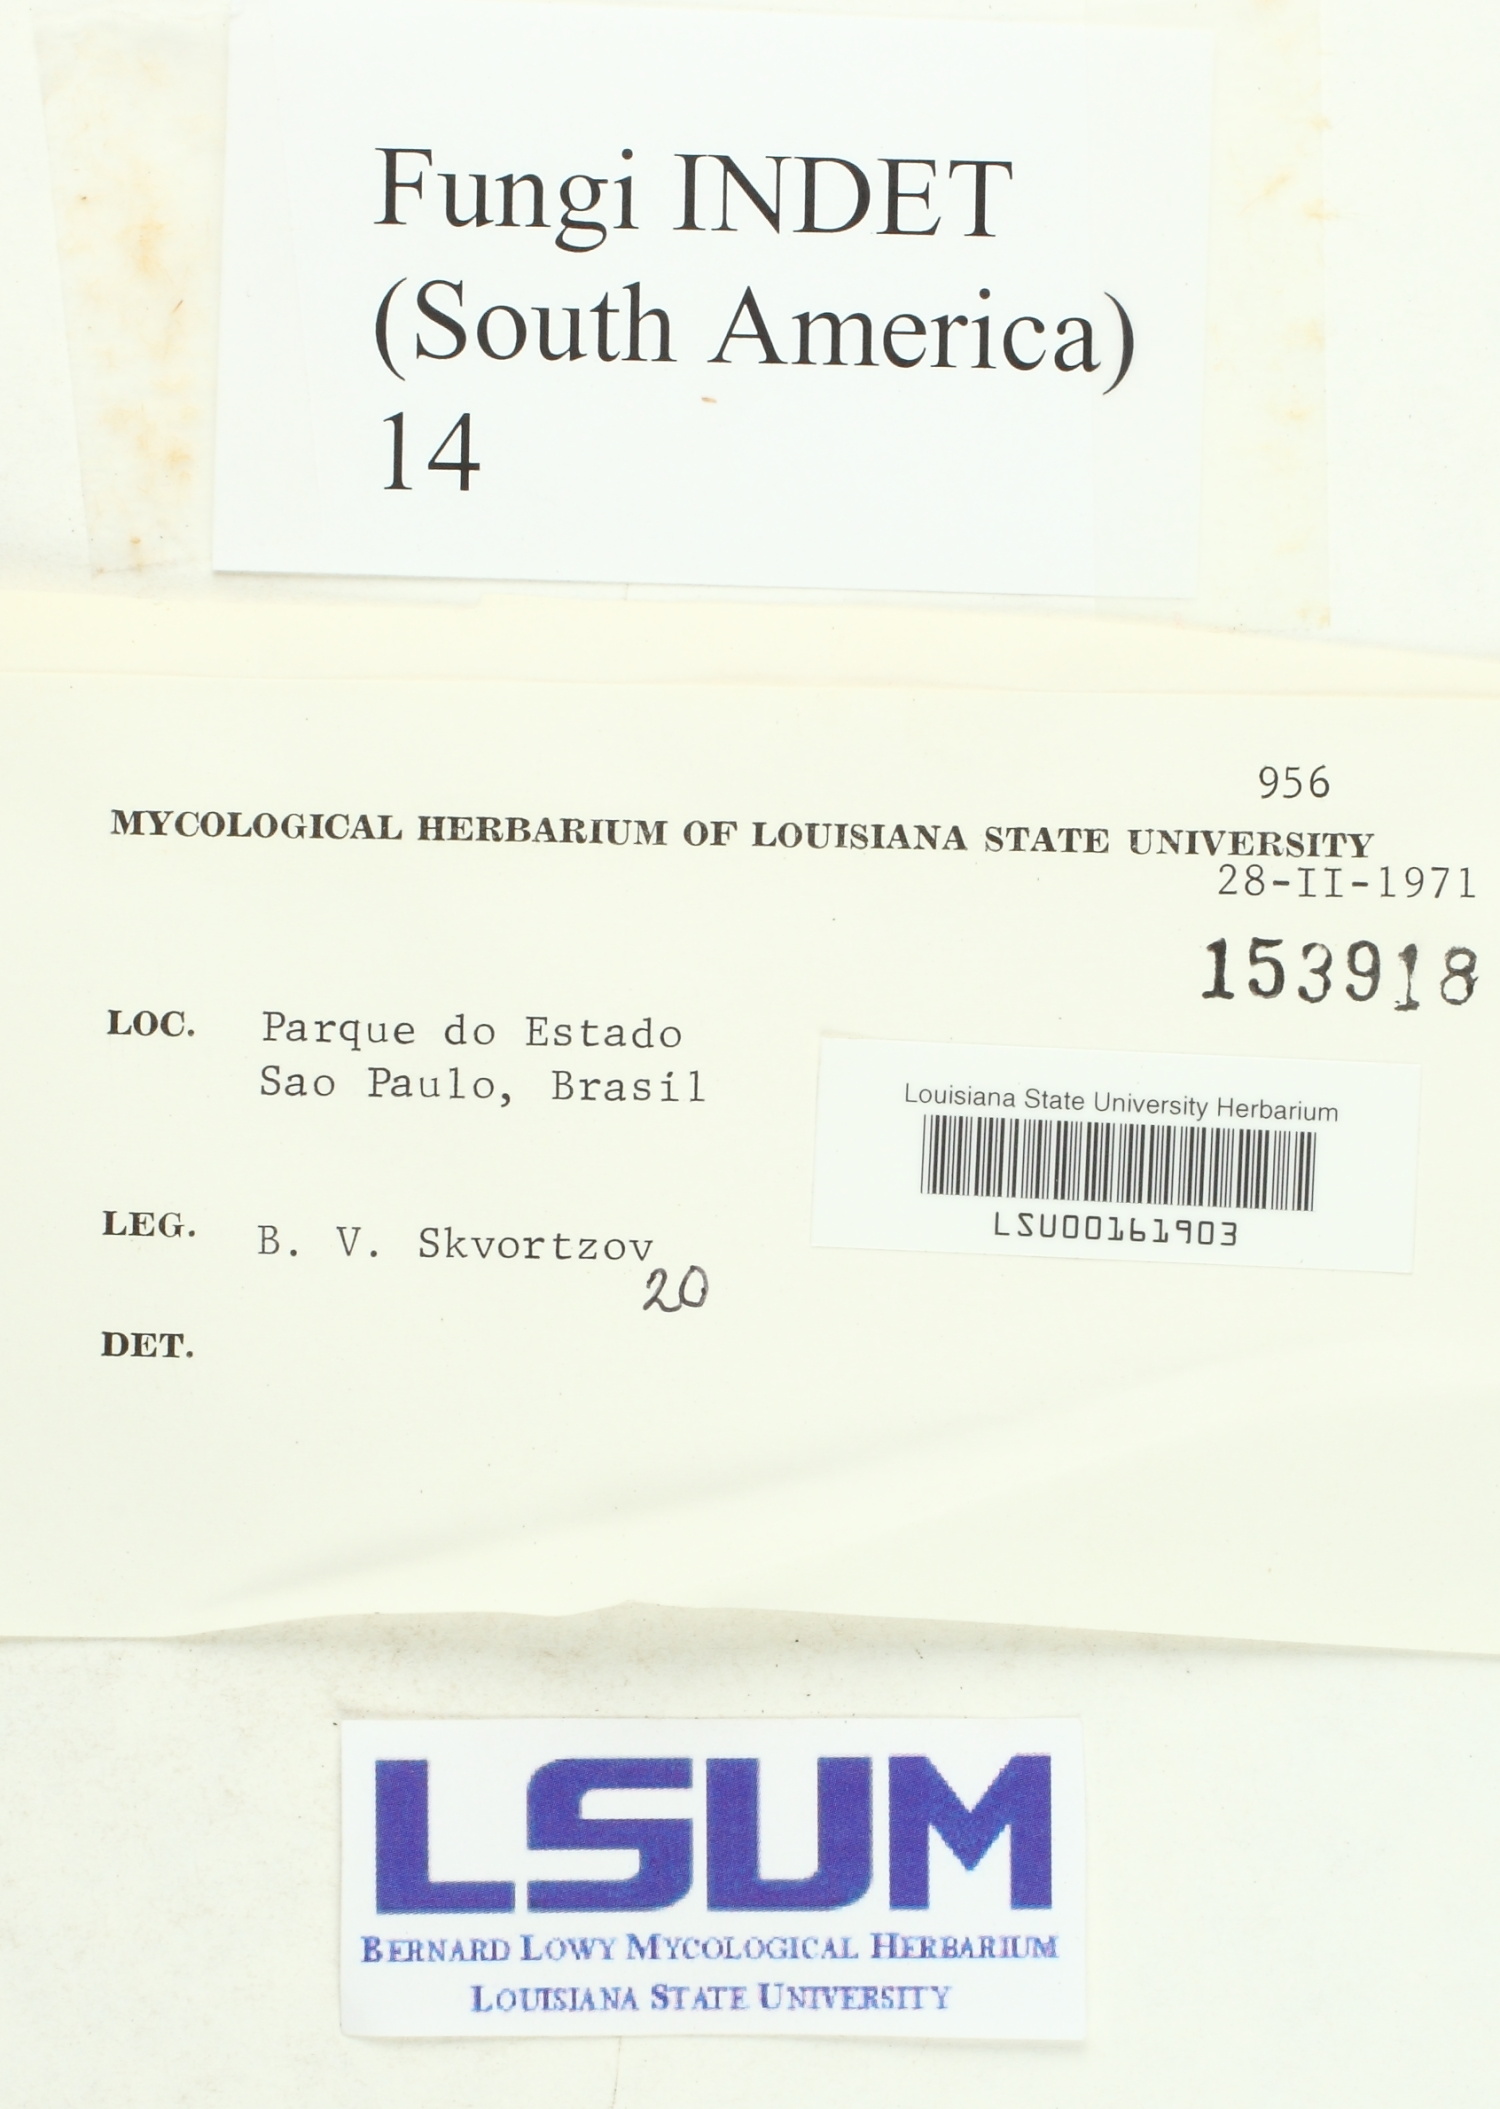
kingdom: Fungi
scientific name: Fungi
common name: Fungi
